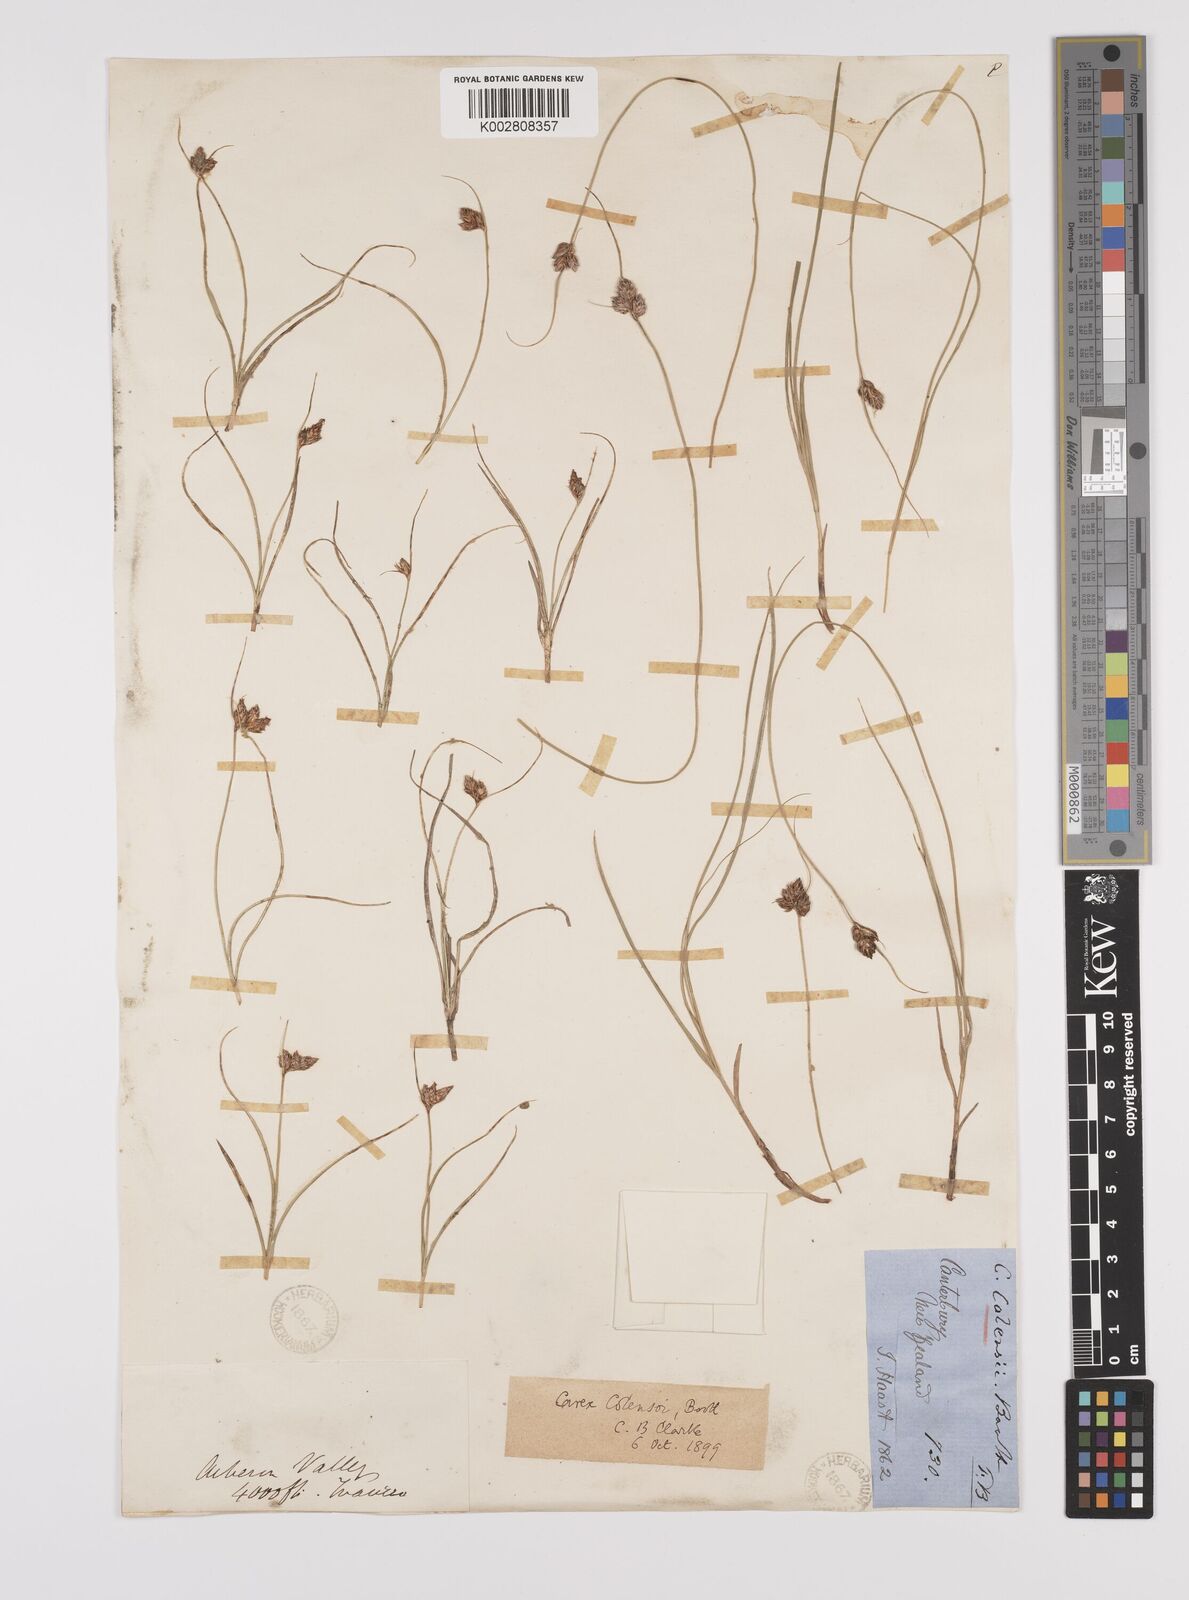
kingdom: Plantae
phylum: Tracheophyta
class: Liliopsida
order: Poales
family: Cyperaceae
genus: Carex
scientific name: Carex colensoi
